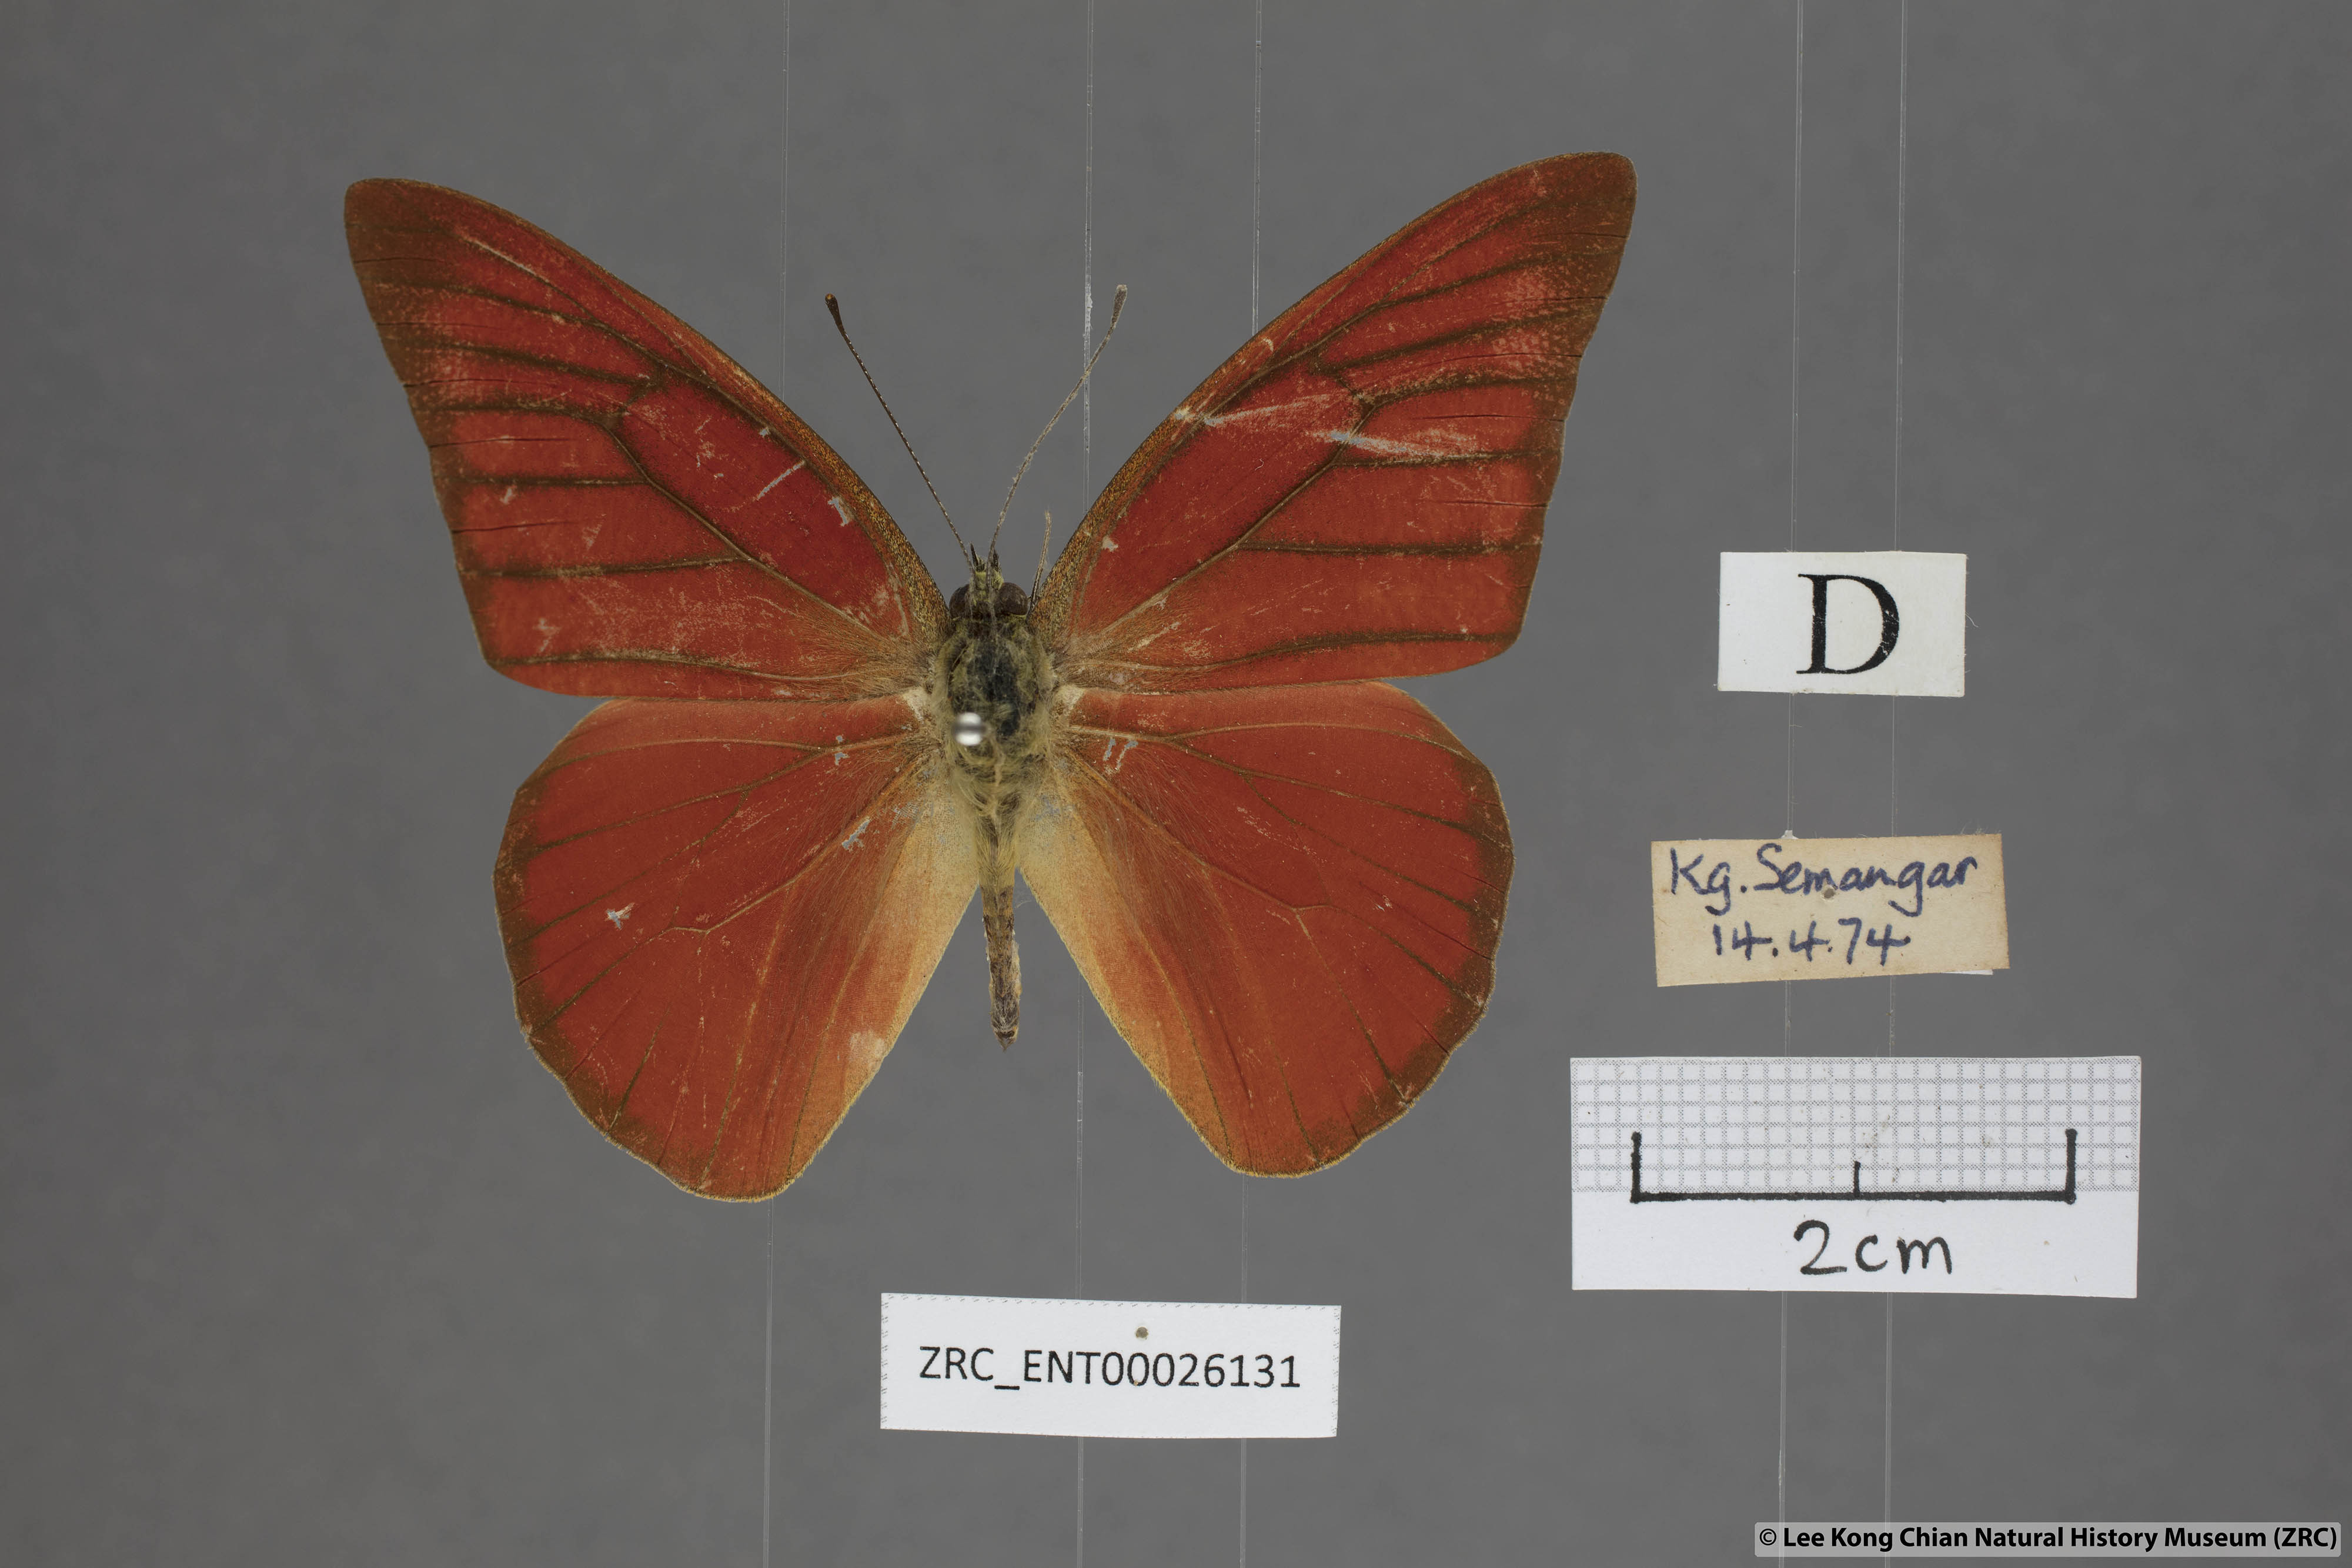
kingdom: Animalia
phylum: Arthropoda
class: Insecta
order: Lepidoptera
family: Pieridae
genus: Appias
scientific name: Appias nero
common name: Orange albatross
